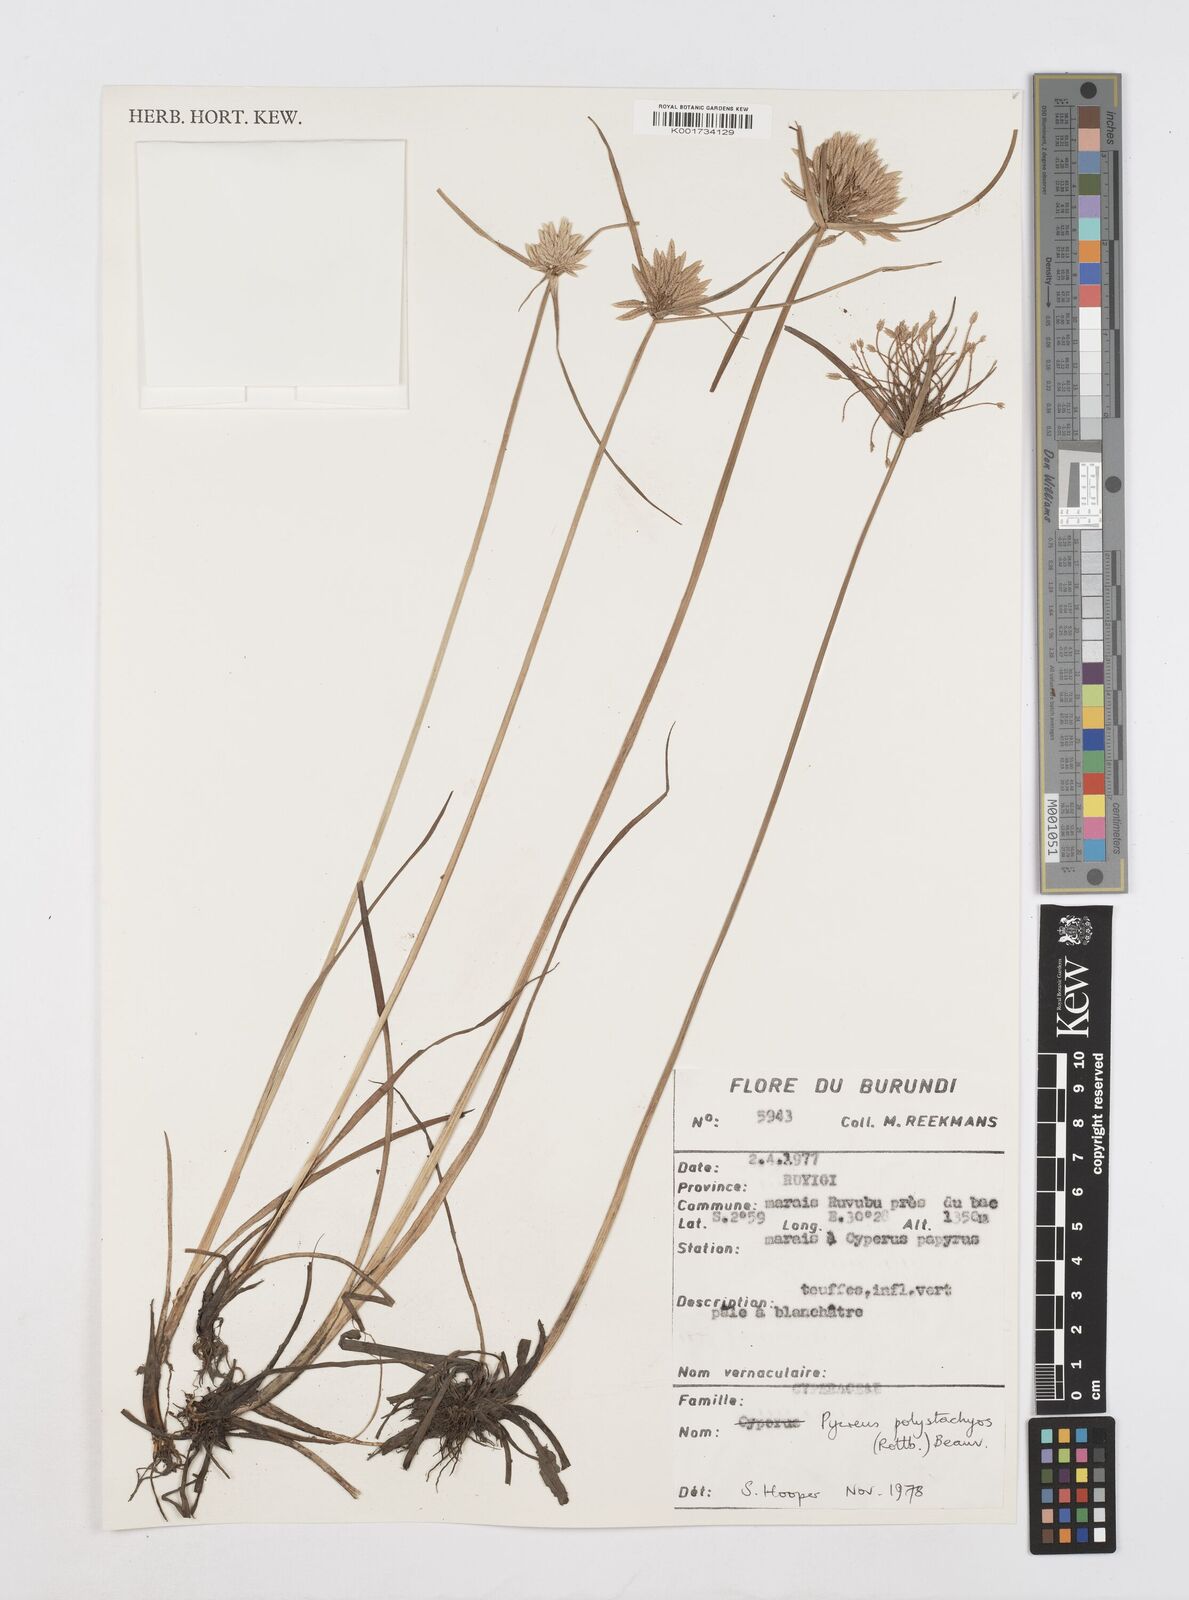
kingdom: Plantae
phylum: Tracheophyta
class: Liliopsida
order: Poales
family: Cyperaceae
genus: Cyperus
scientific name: Cyperus polystachyos
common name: Bunchy flat sedge
